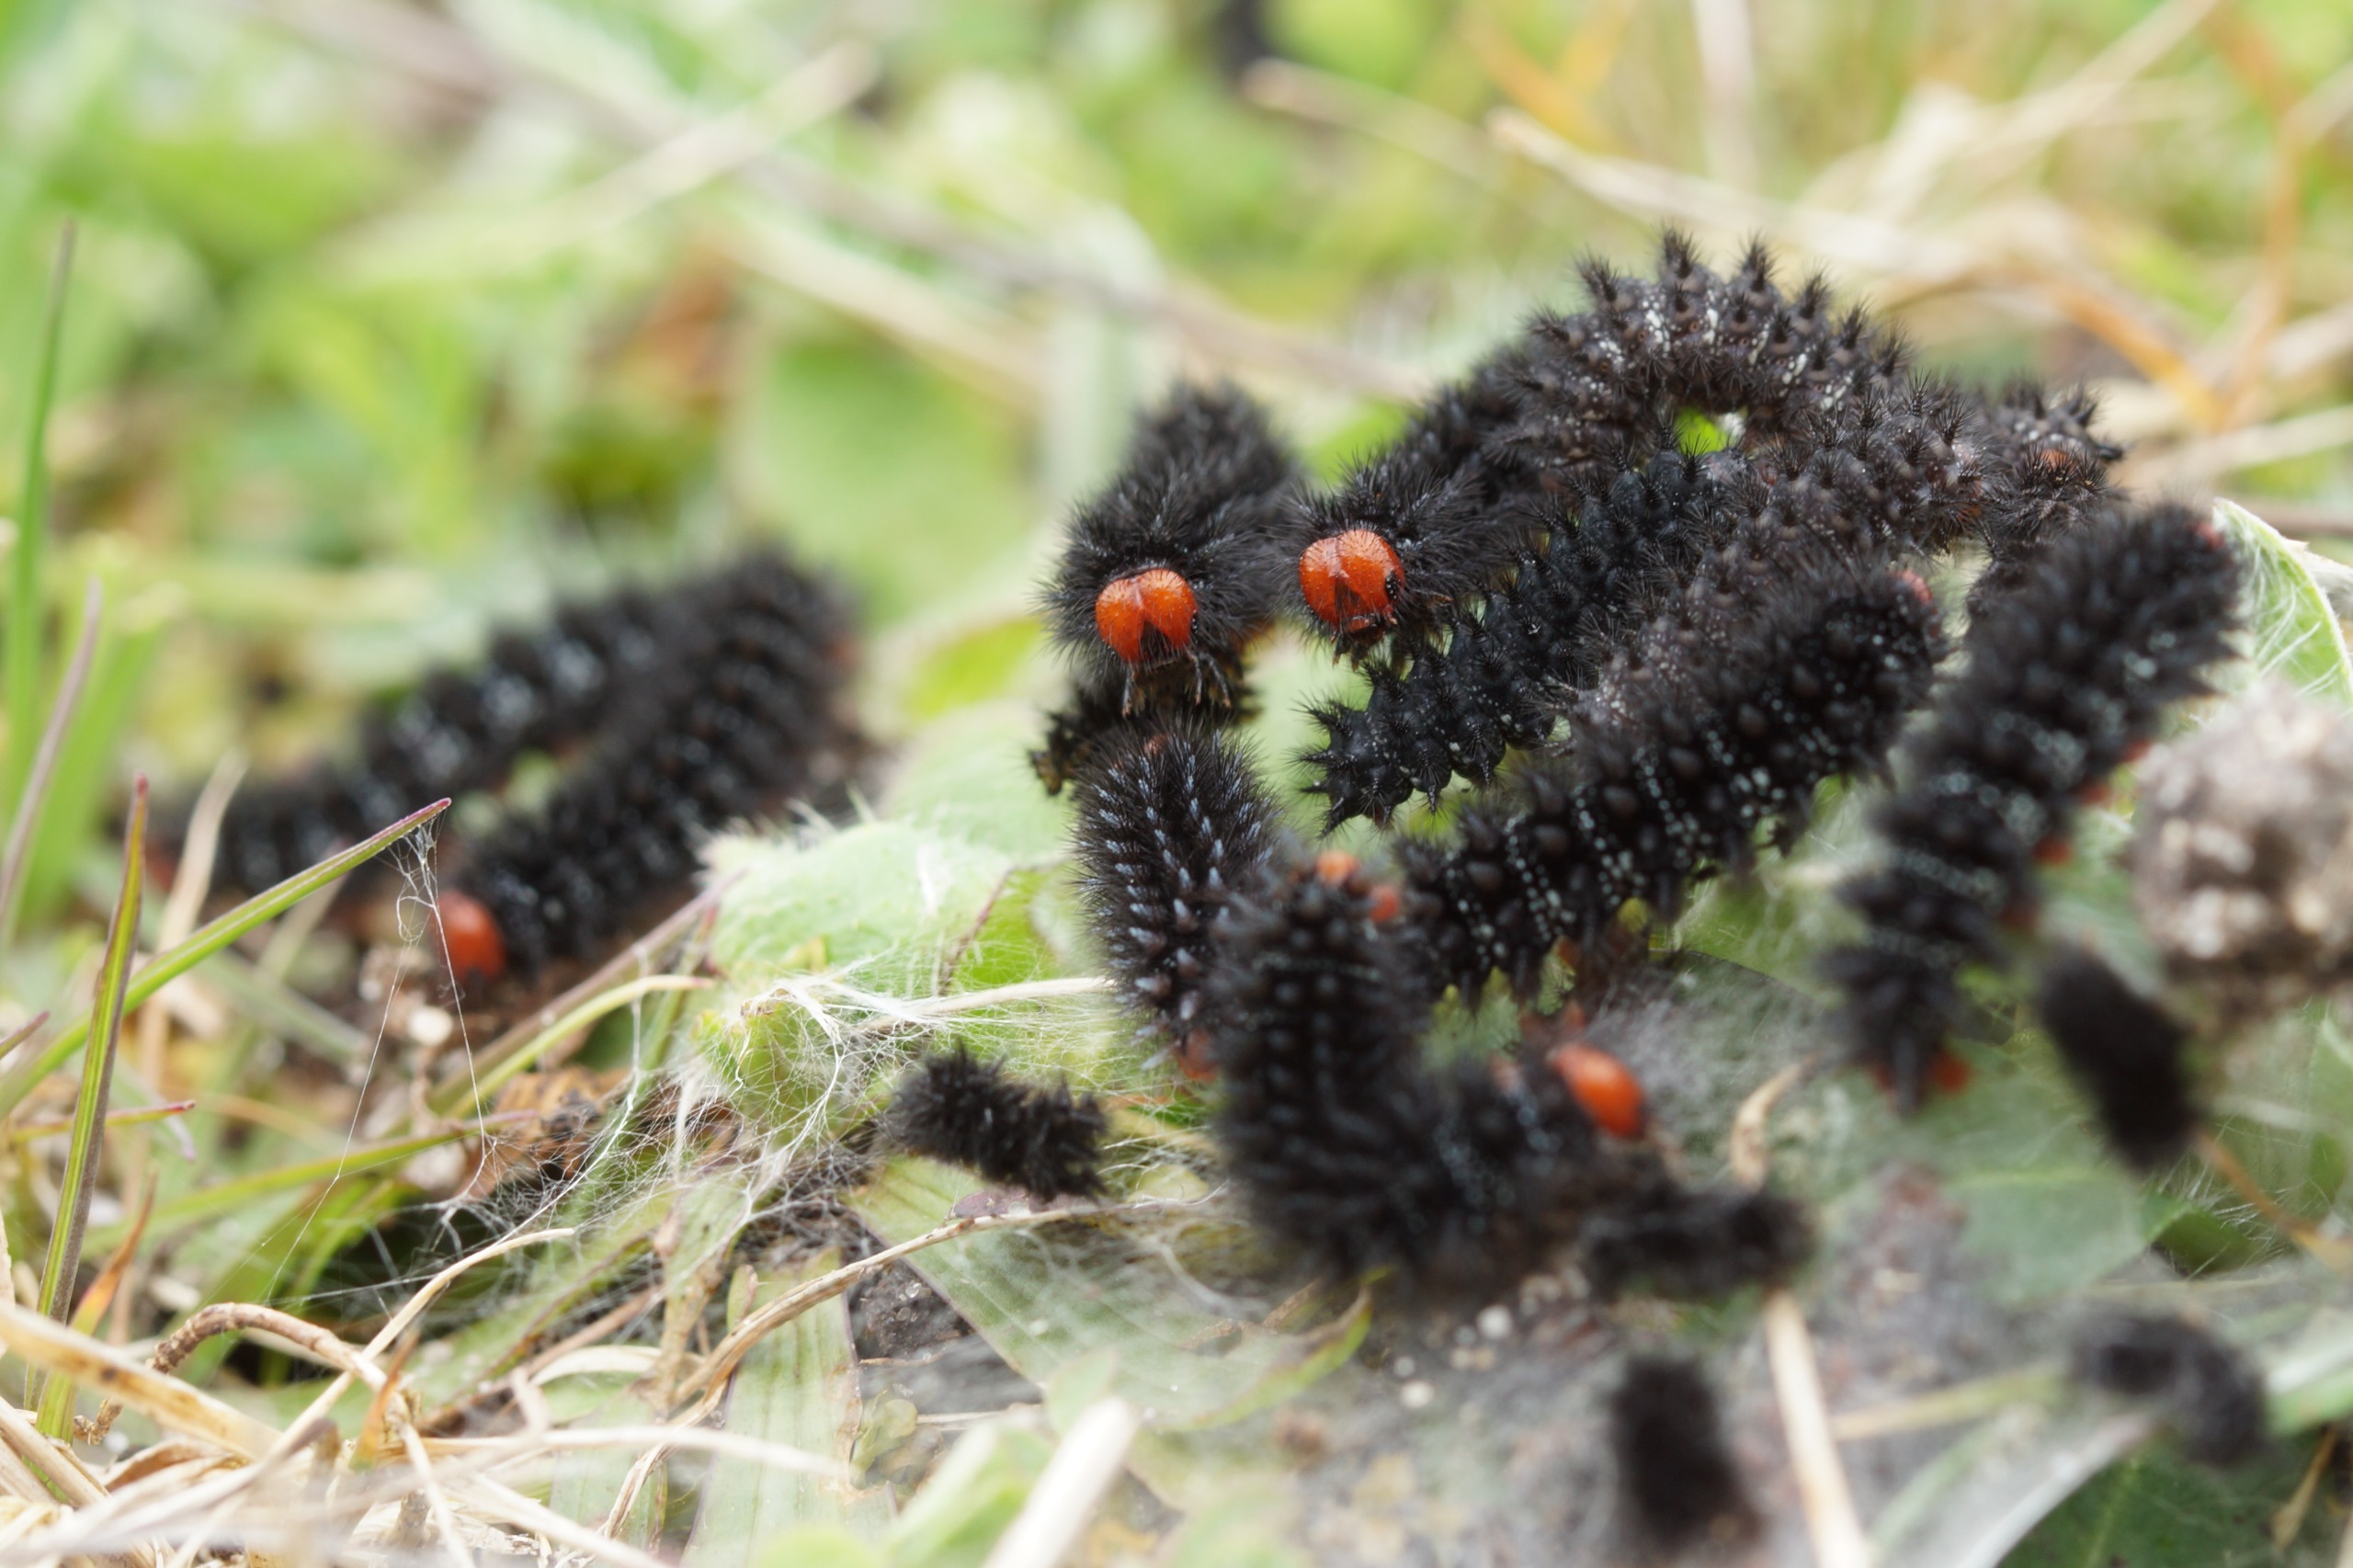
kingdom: Animalia
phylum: Arthropoda
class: Insecta
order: Lepidoptera
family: Nymphalidae
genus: Melitaea
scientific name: Melitaea cinxia
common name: Okkergul pletvinge
